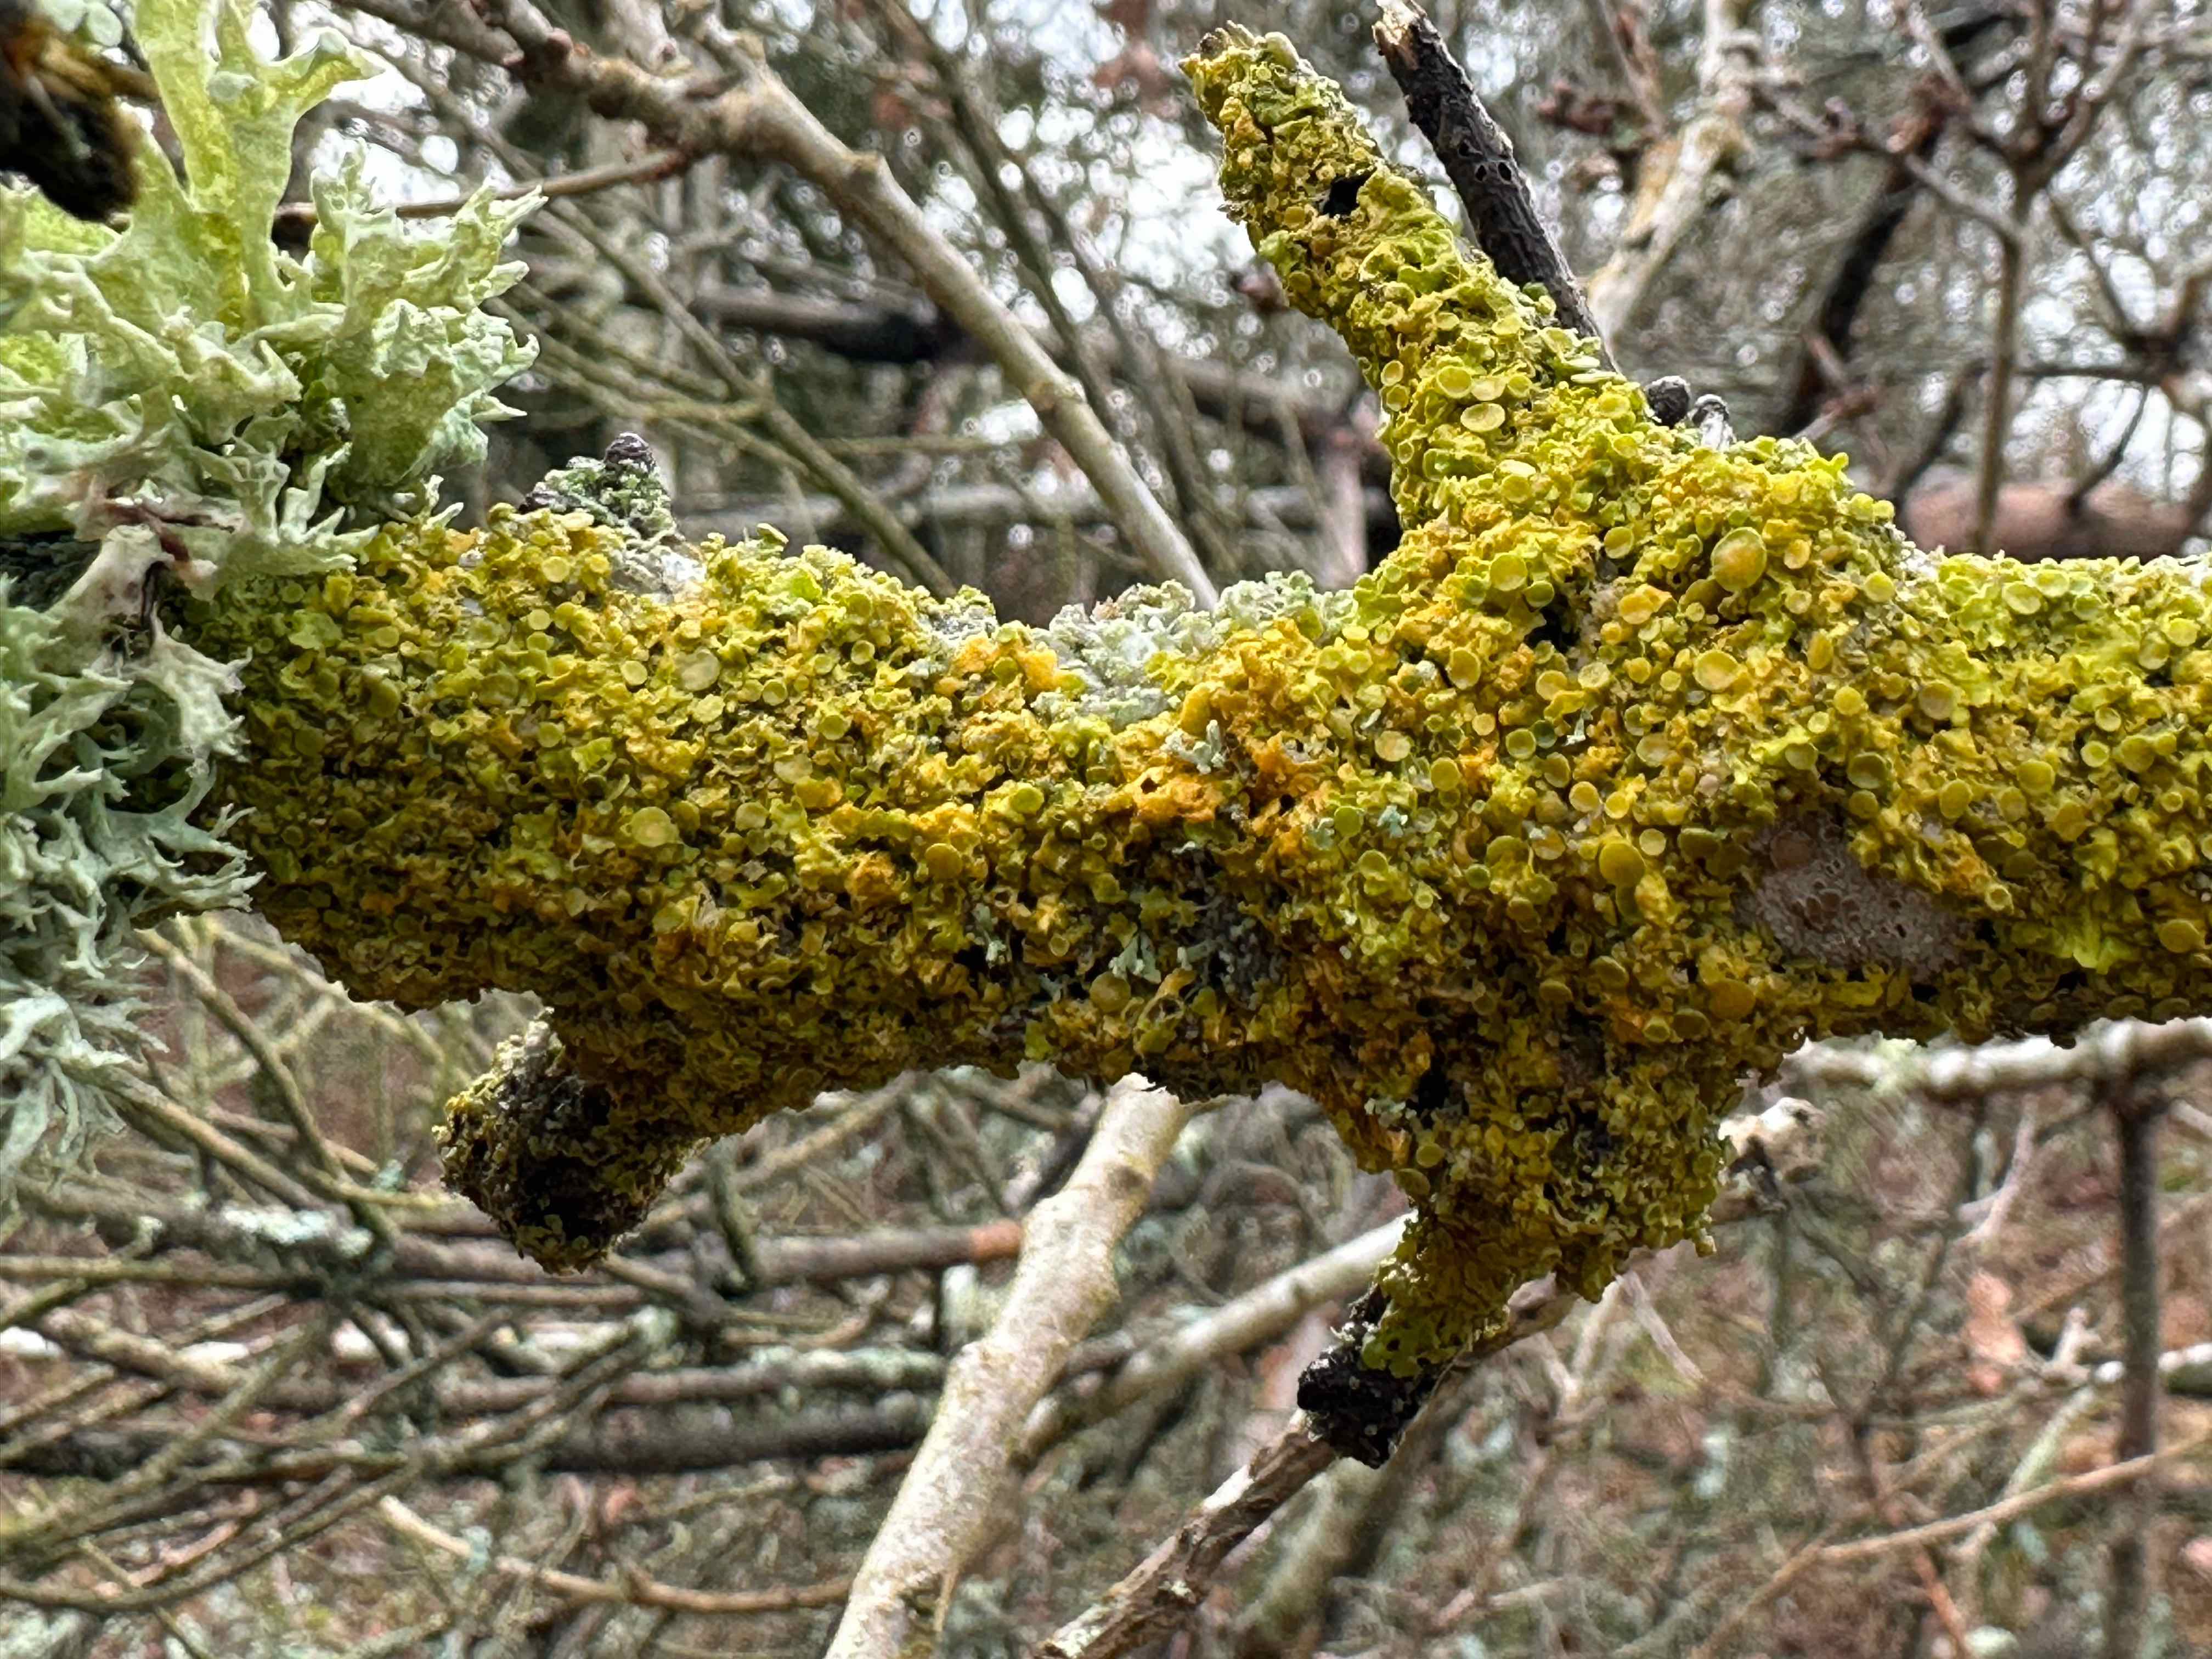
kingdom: Fungi
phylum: Ascomycota
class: Lecanoromycetes
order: Teloschistales
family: Teloschistaceae
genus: Xanthoria
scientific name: Xanthoria parietina
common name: almindelig væggelav
